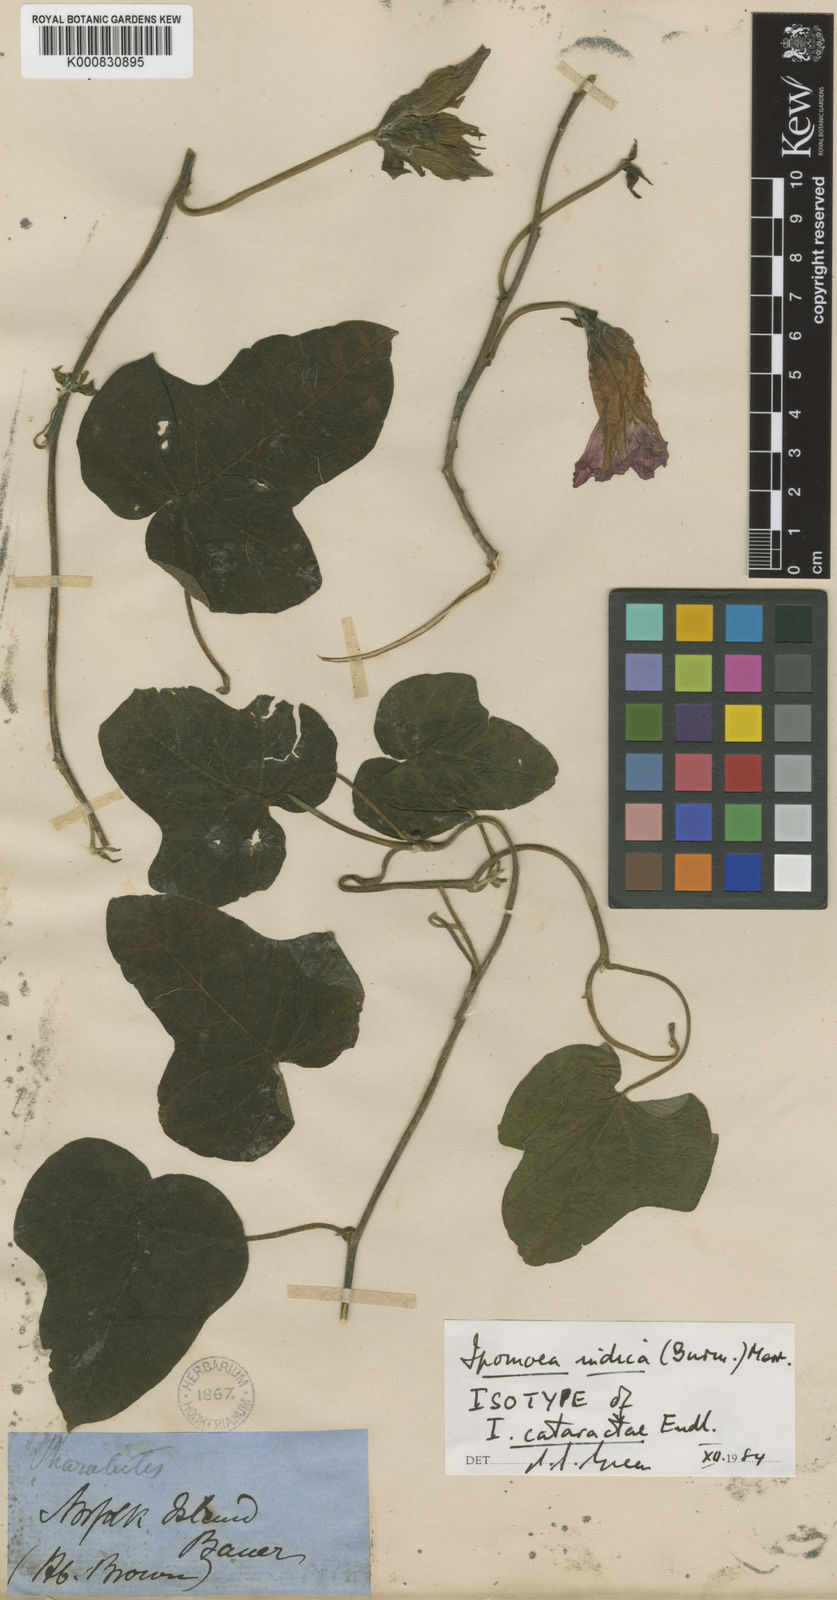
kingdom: Plantae
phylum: Tracheophyta
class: Magnoliopsida
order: Solanales
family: Convolvulaceae
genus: Ipomoea
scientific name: Ipomoea indica
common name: Blue dawnflower
